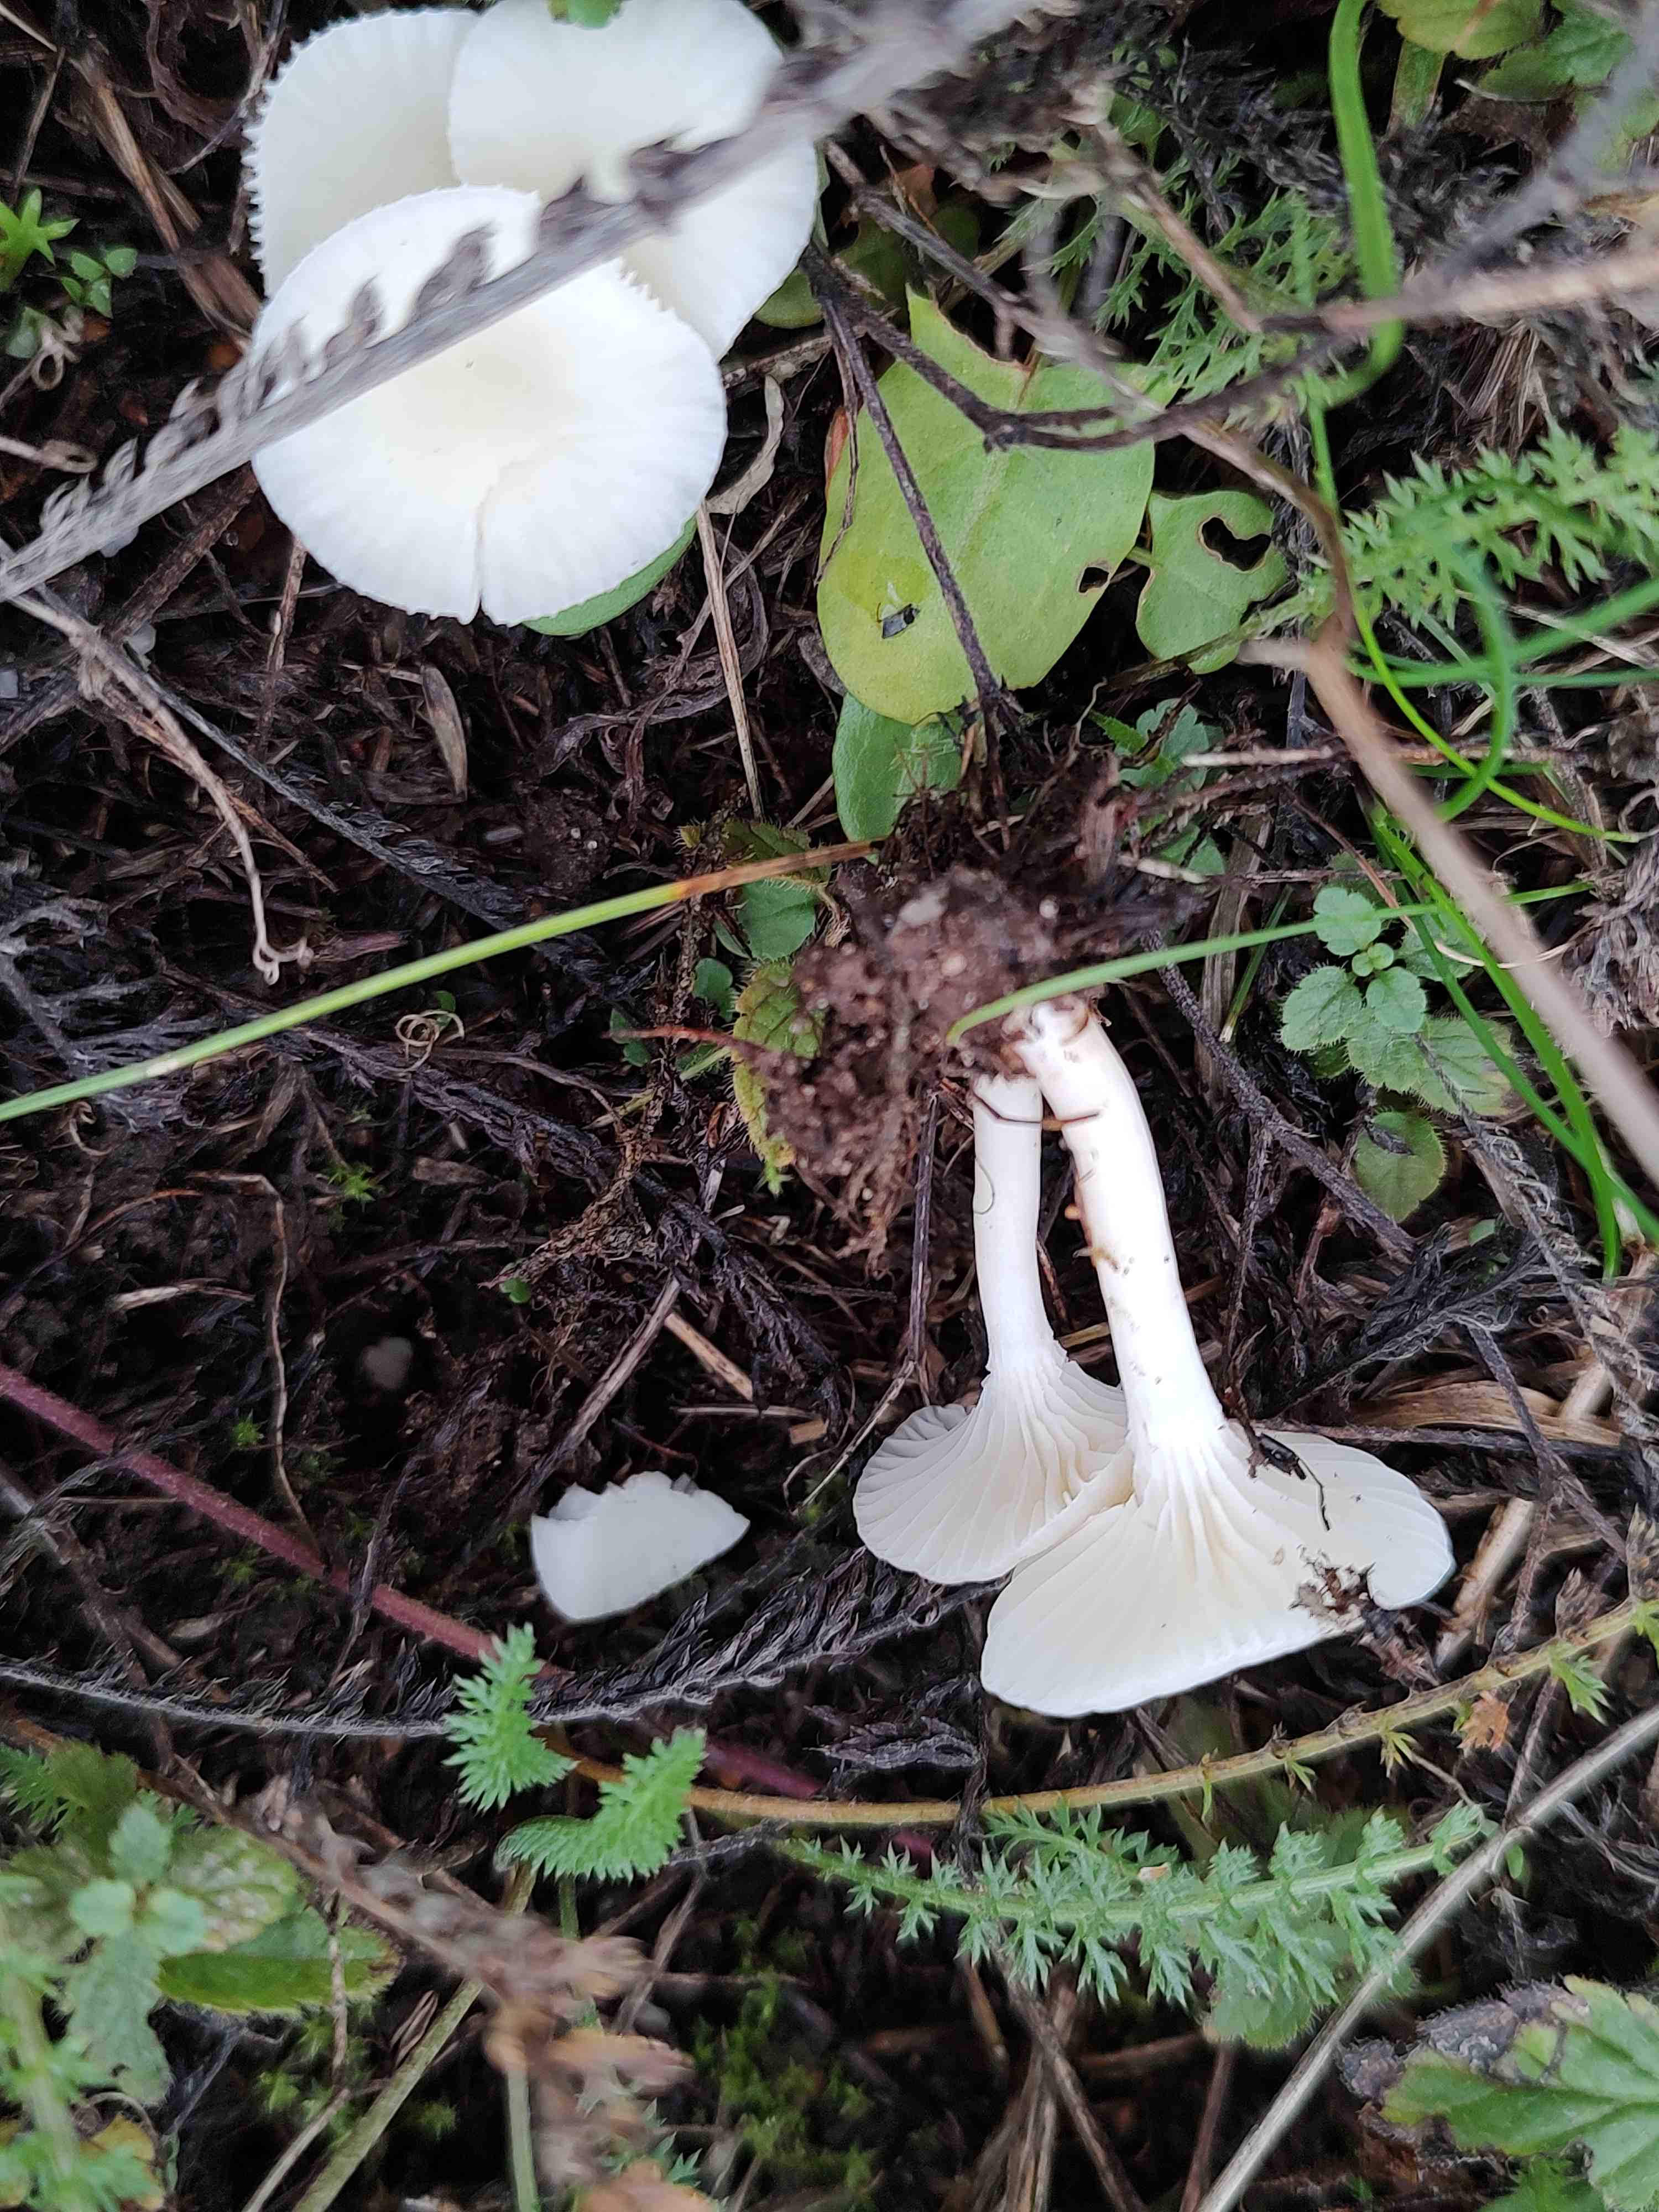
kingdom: Fungi
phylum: Basidiomycota
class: Agaricomycetes
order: Agaricales
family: Hygrophoraceae
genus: Cuphophyllus
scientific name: Cuphophyllus virgineus
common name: snehvid vokshat
